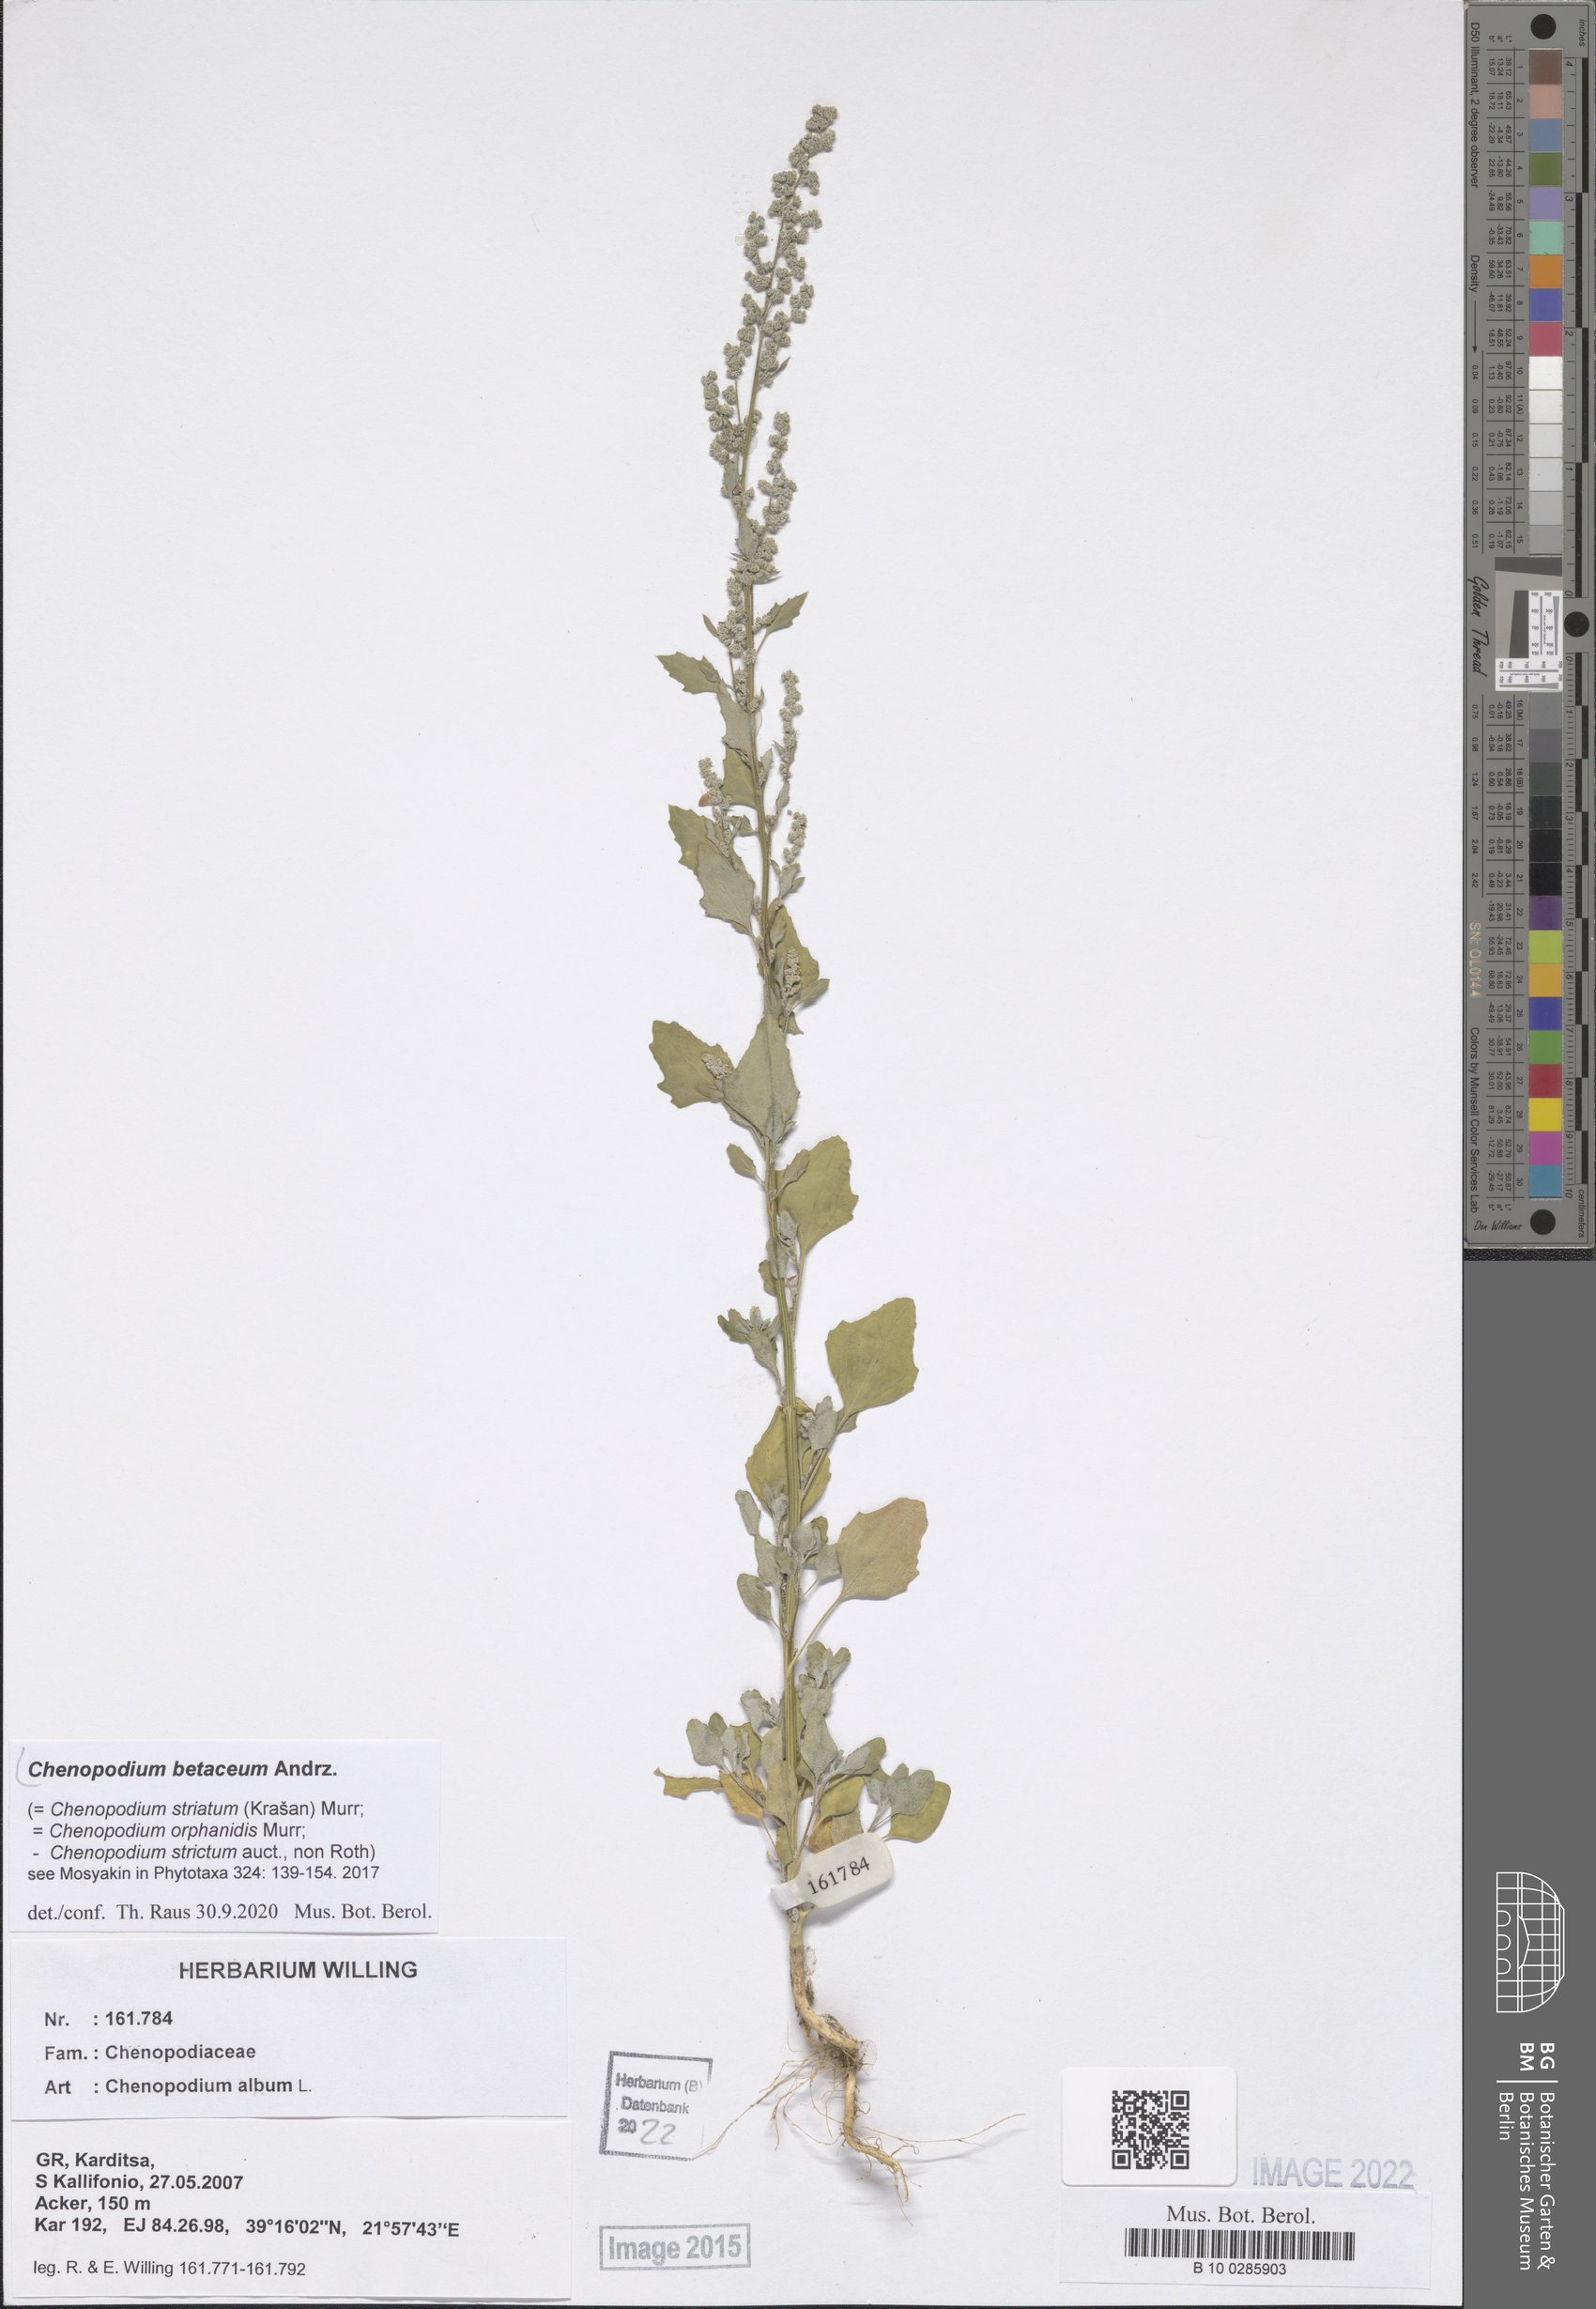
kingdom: Plantae
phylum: Tracheophyta
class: Magnoliopsida
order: Caryophyllales
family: Amaranthaceae
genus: Chenopodium
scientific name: Chenopodium betaceum
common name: Striped goosefoot
